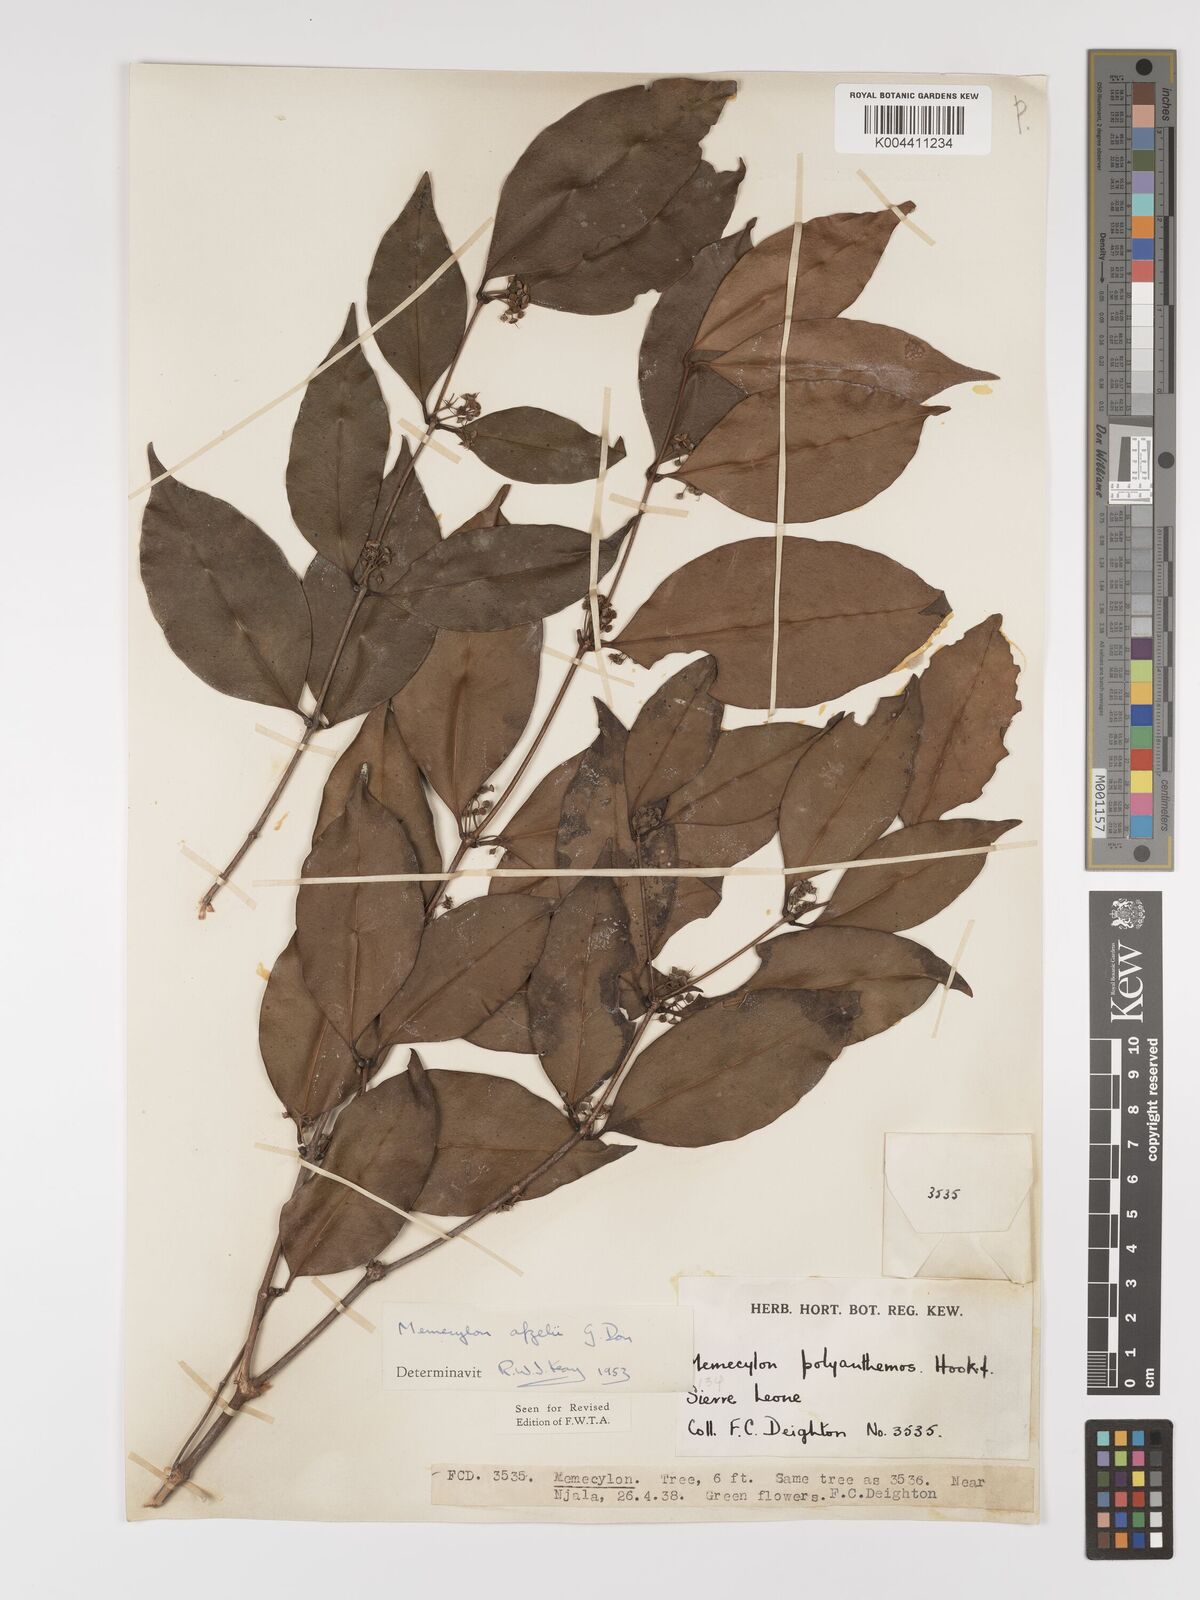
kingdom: Plantae
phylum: Tracheophyta
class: Magnoliopsida
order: Myrtales
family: Melastomataceae
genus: Memecylon
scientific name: Memecylon afzelii
